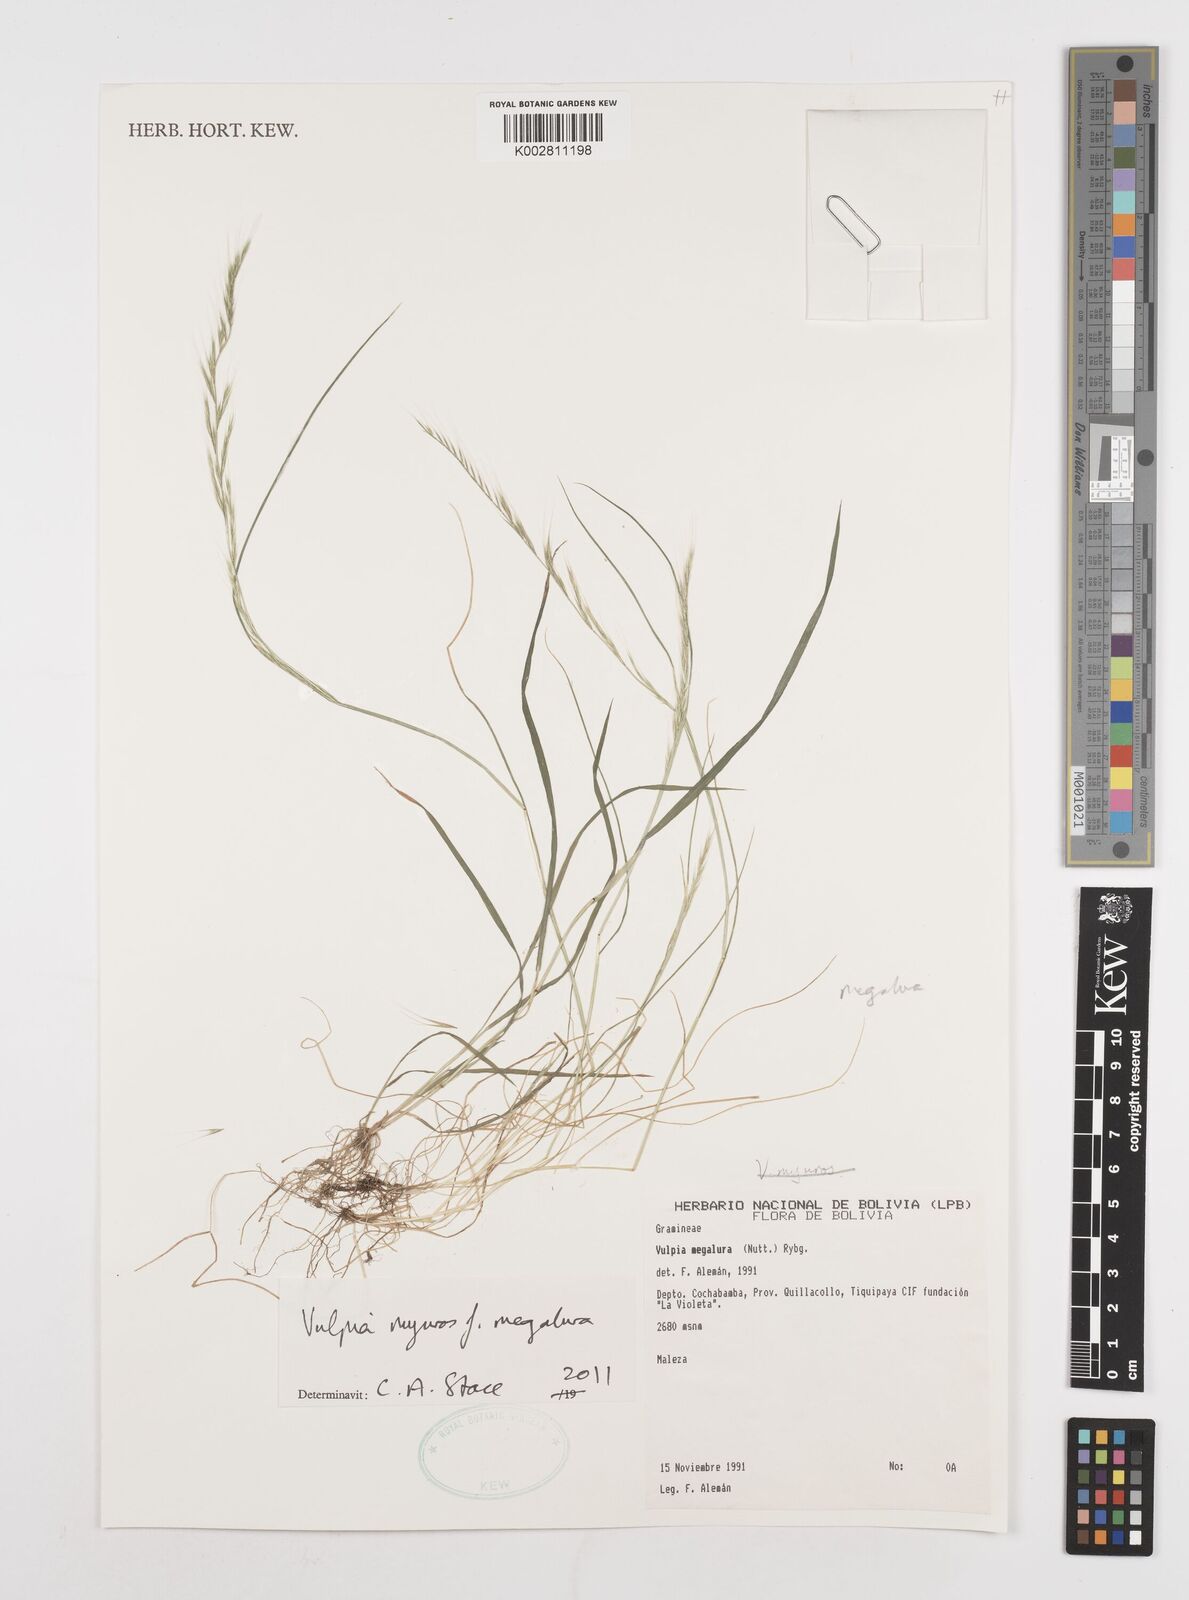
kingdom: Plantae
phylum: Tracheophyta
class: Liliopsida
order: Poales
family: Poaceae
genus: Festuca
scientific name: Festuca myuros
